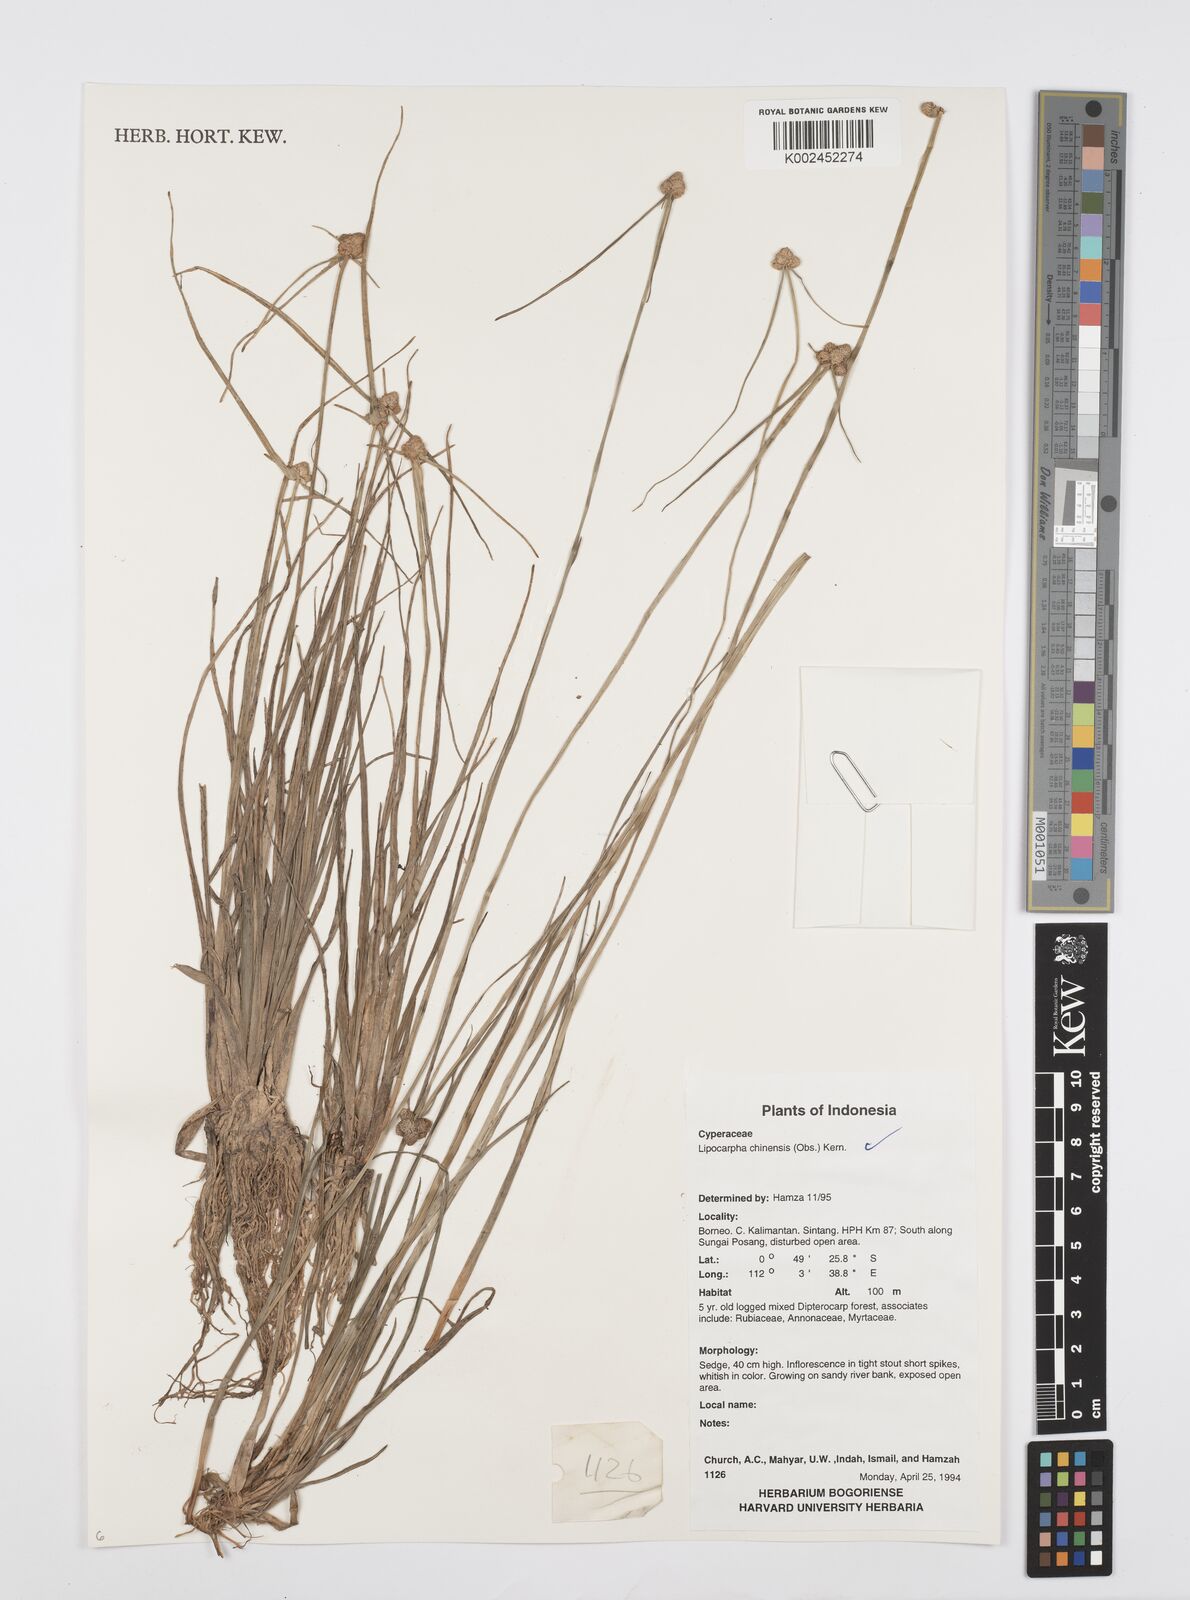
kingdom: Plantae
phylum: Tracheophyta
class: Liliopsida
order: Poales
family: Cyperaceae
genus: Cyperus
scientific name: Cyperus
